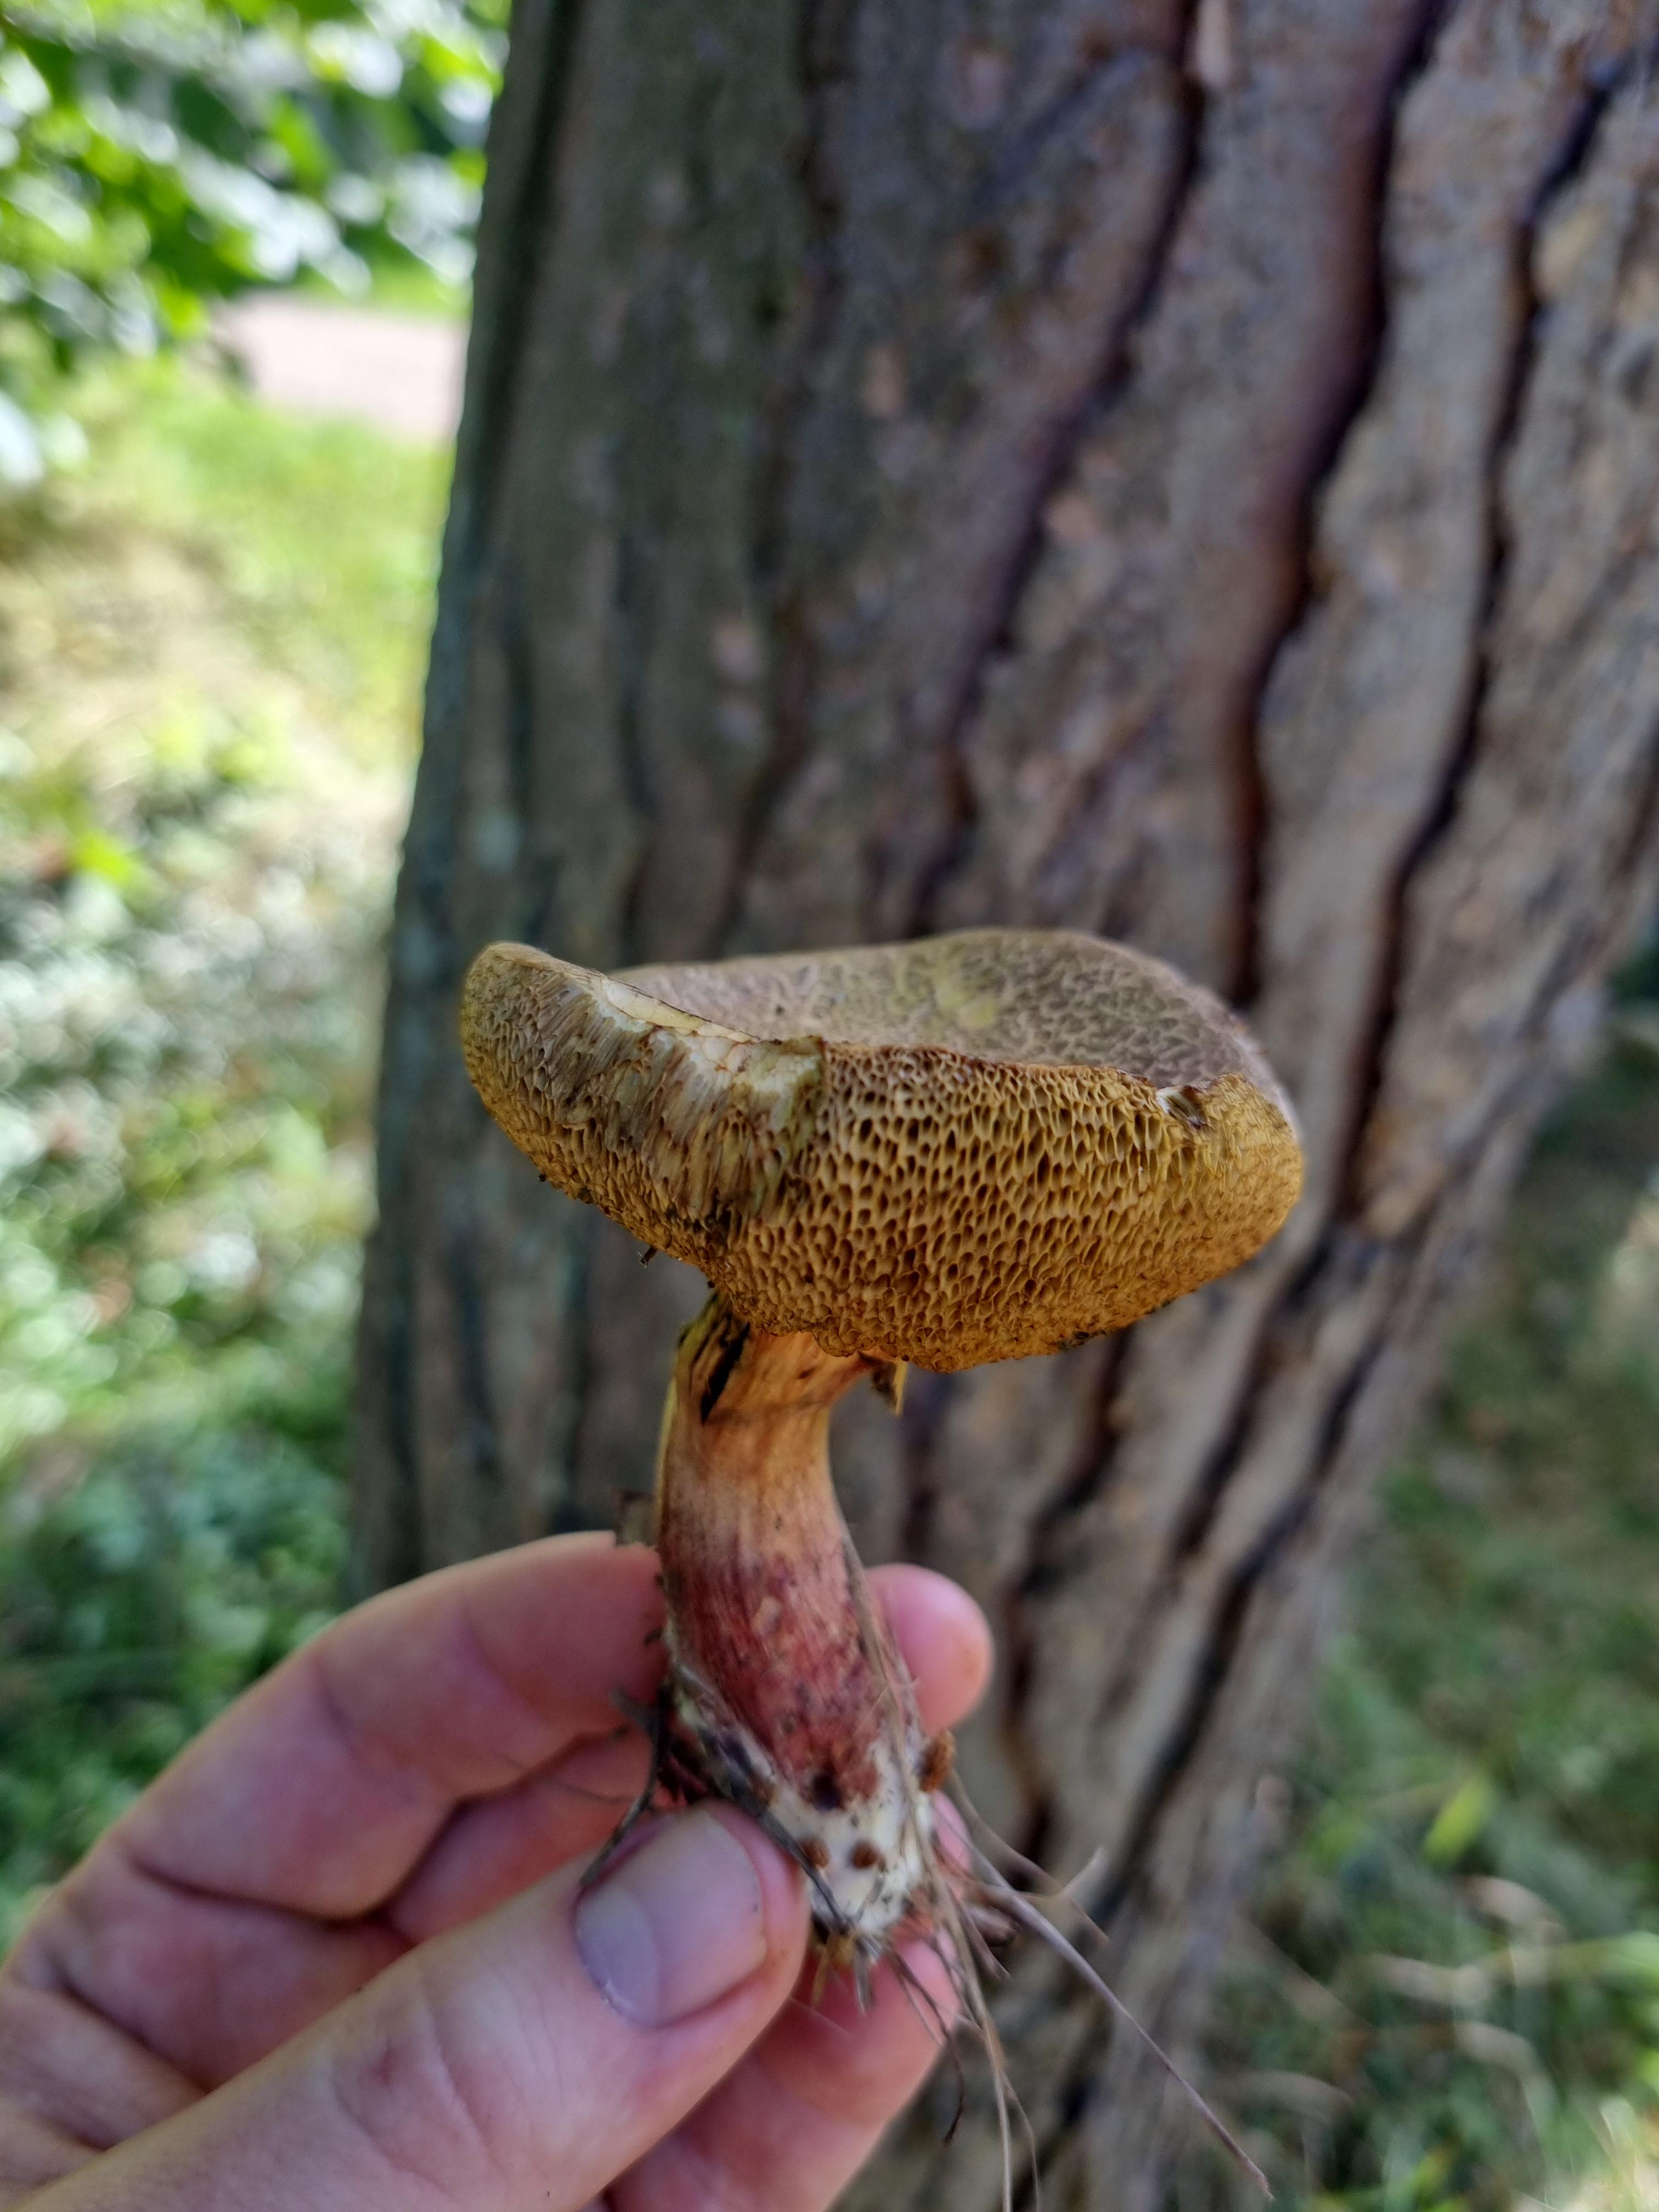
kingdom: Fungi
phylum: Basidiomycota
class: Agaricomycetes
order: Boletales
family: Boletaceae
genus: Xerocomellus
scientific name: Xerocomellus
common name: dværgrørhat
